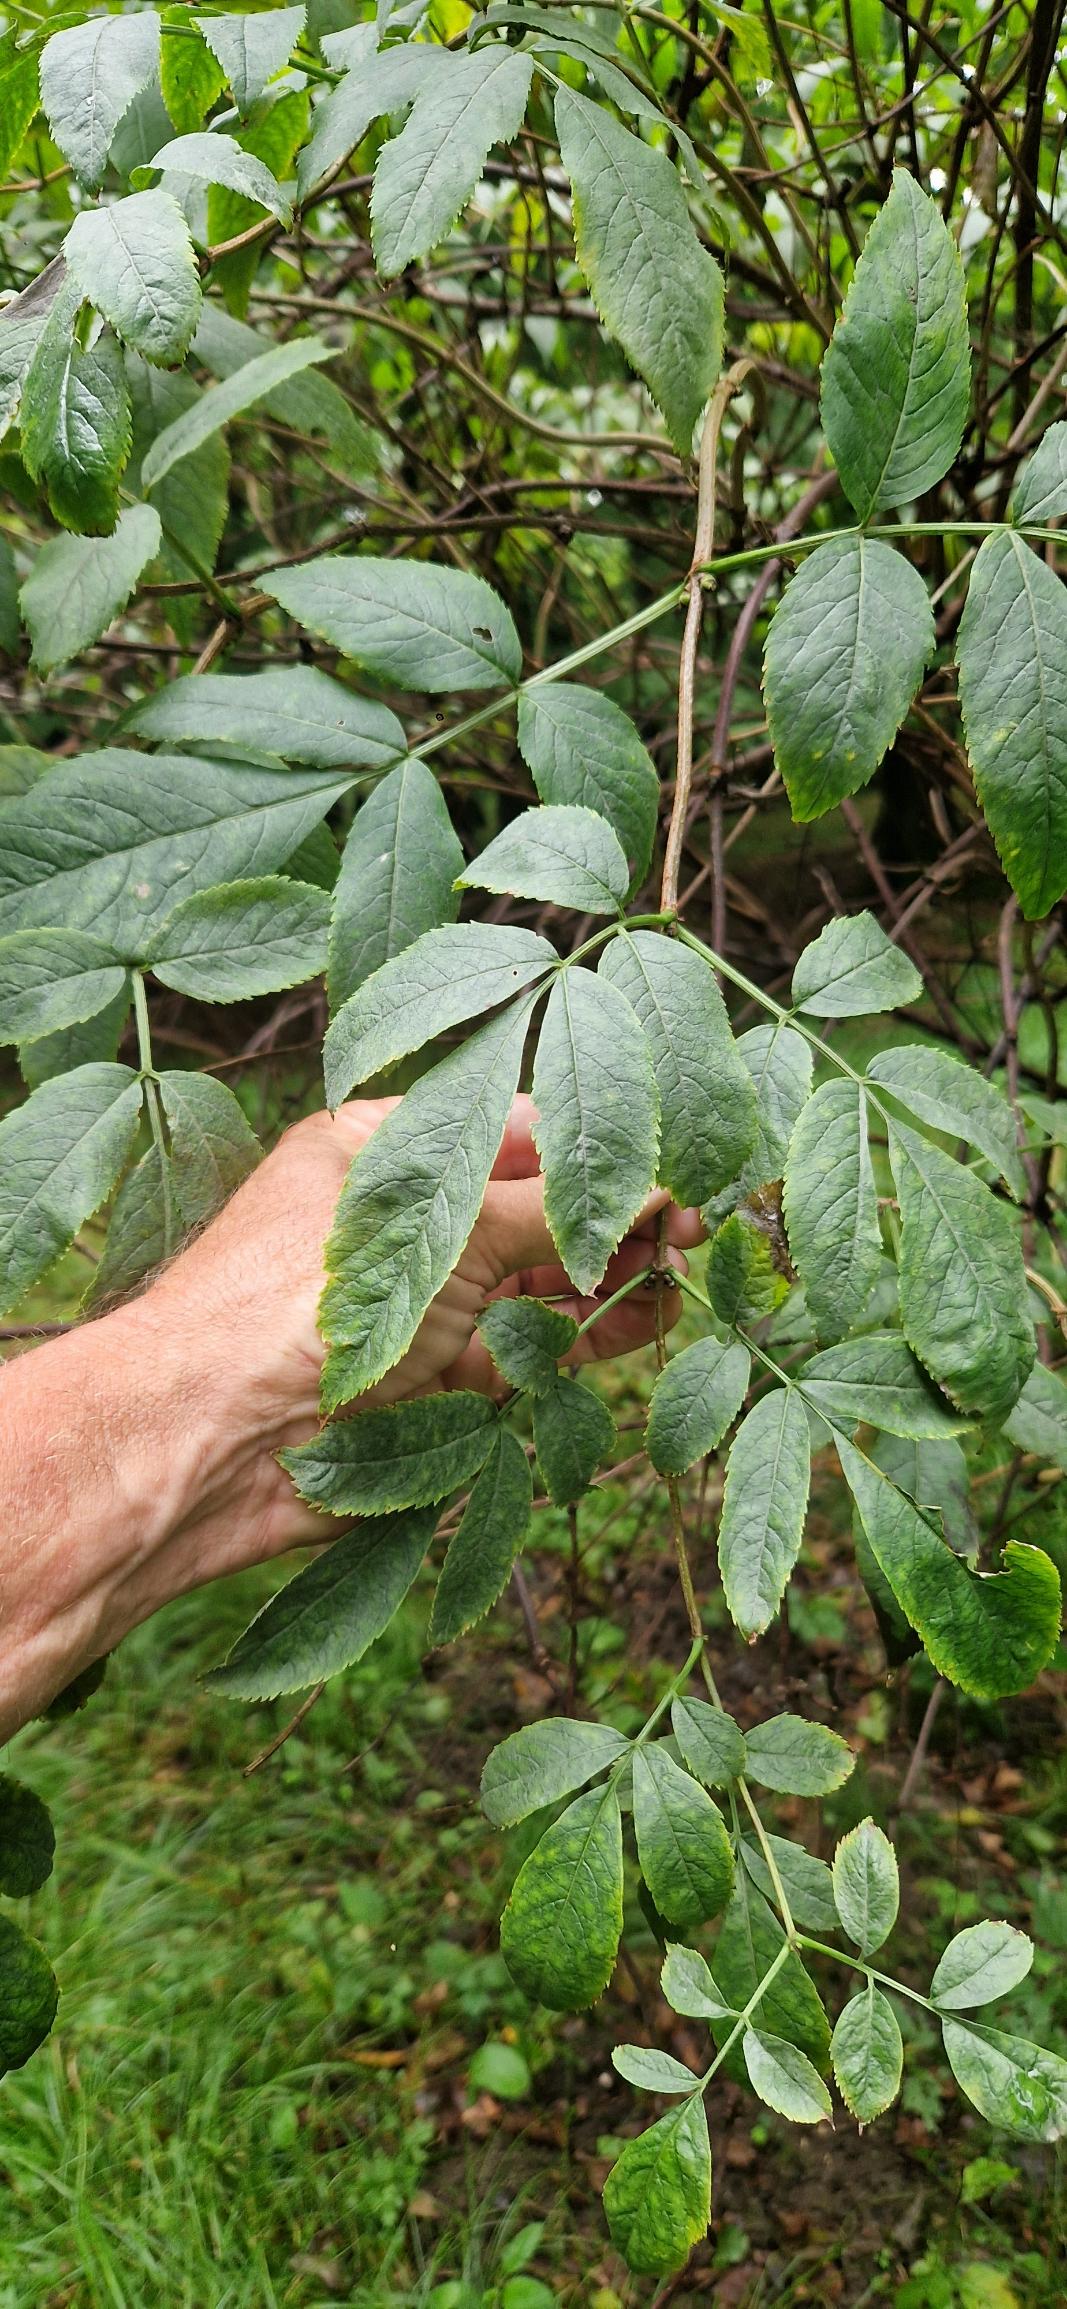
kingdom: Plantae
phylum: Tracheophyta
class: Magnoliopsida
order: Dipsacales
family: Viburnaceae
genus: Sambucus
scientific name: Sambucus racemosa
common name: Drue-hyld
